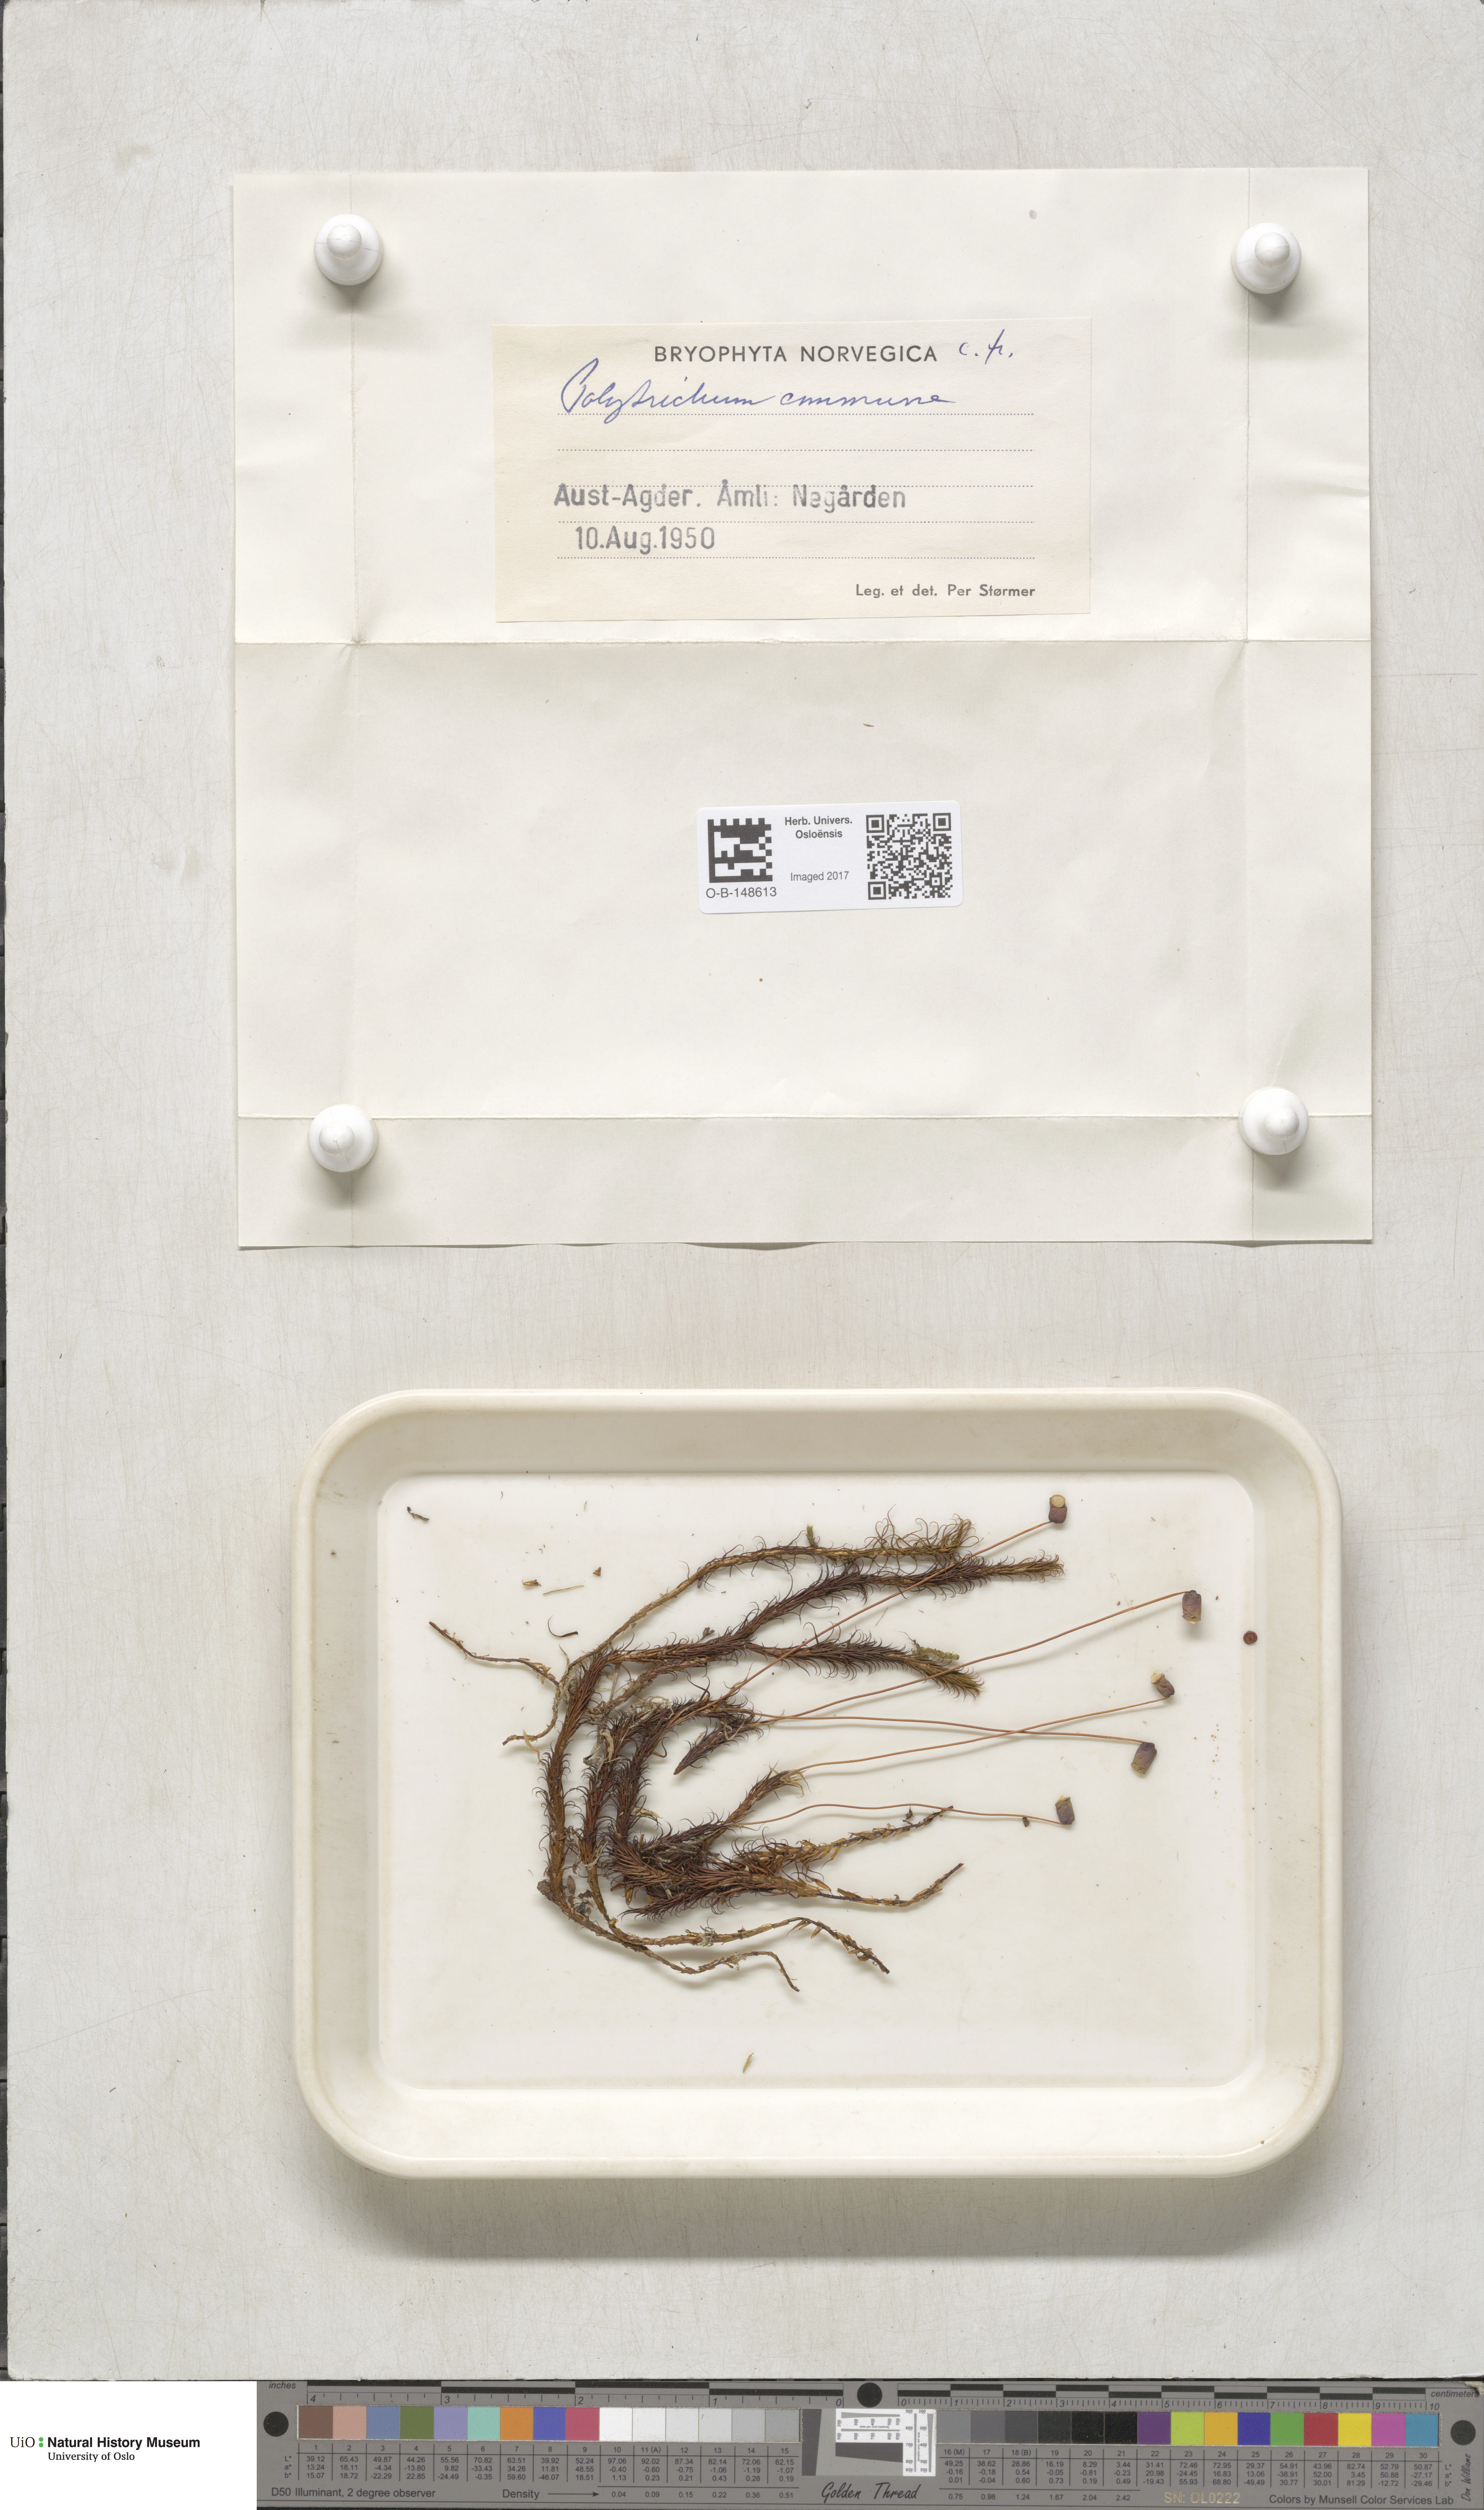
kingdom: Plantae
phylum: Bryophyta
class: Polytrichopsida
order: Polytrichales
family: Polytrichaceae
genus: Polytrichum
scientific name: Polytrichum commune
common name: Common haircap
